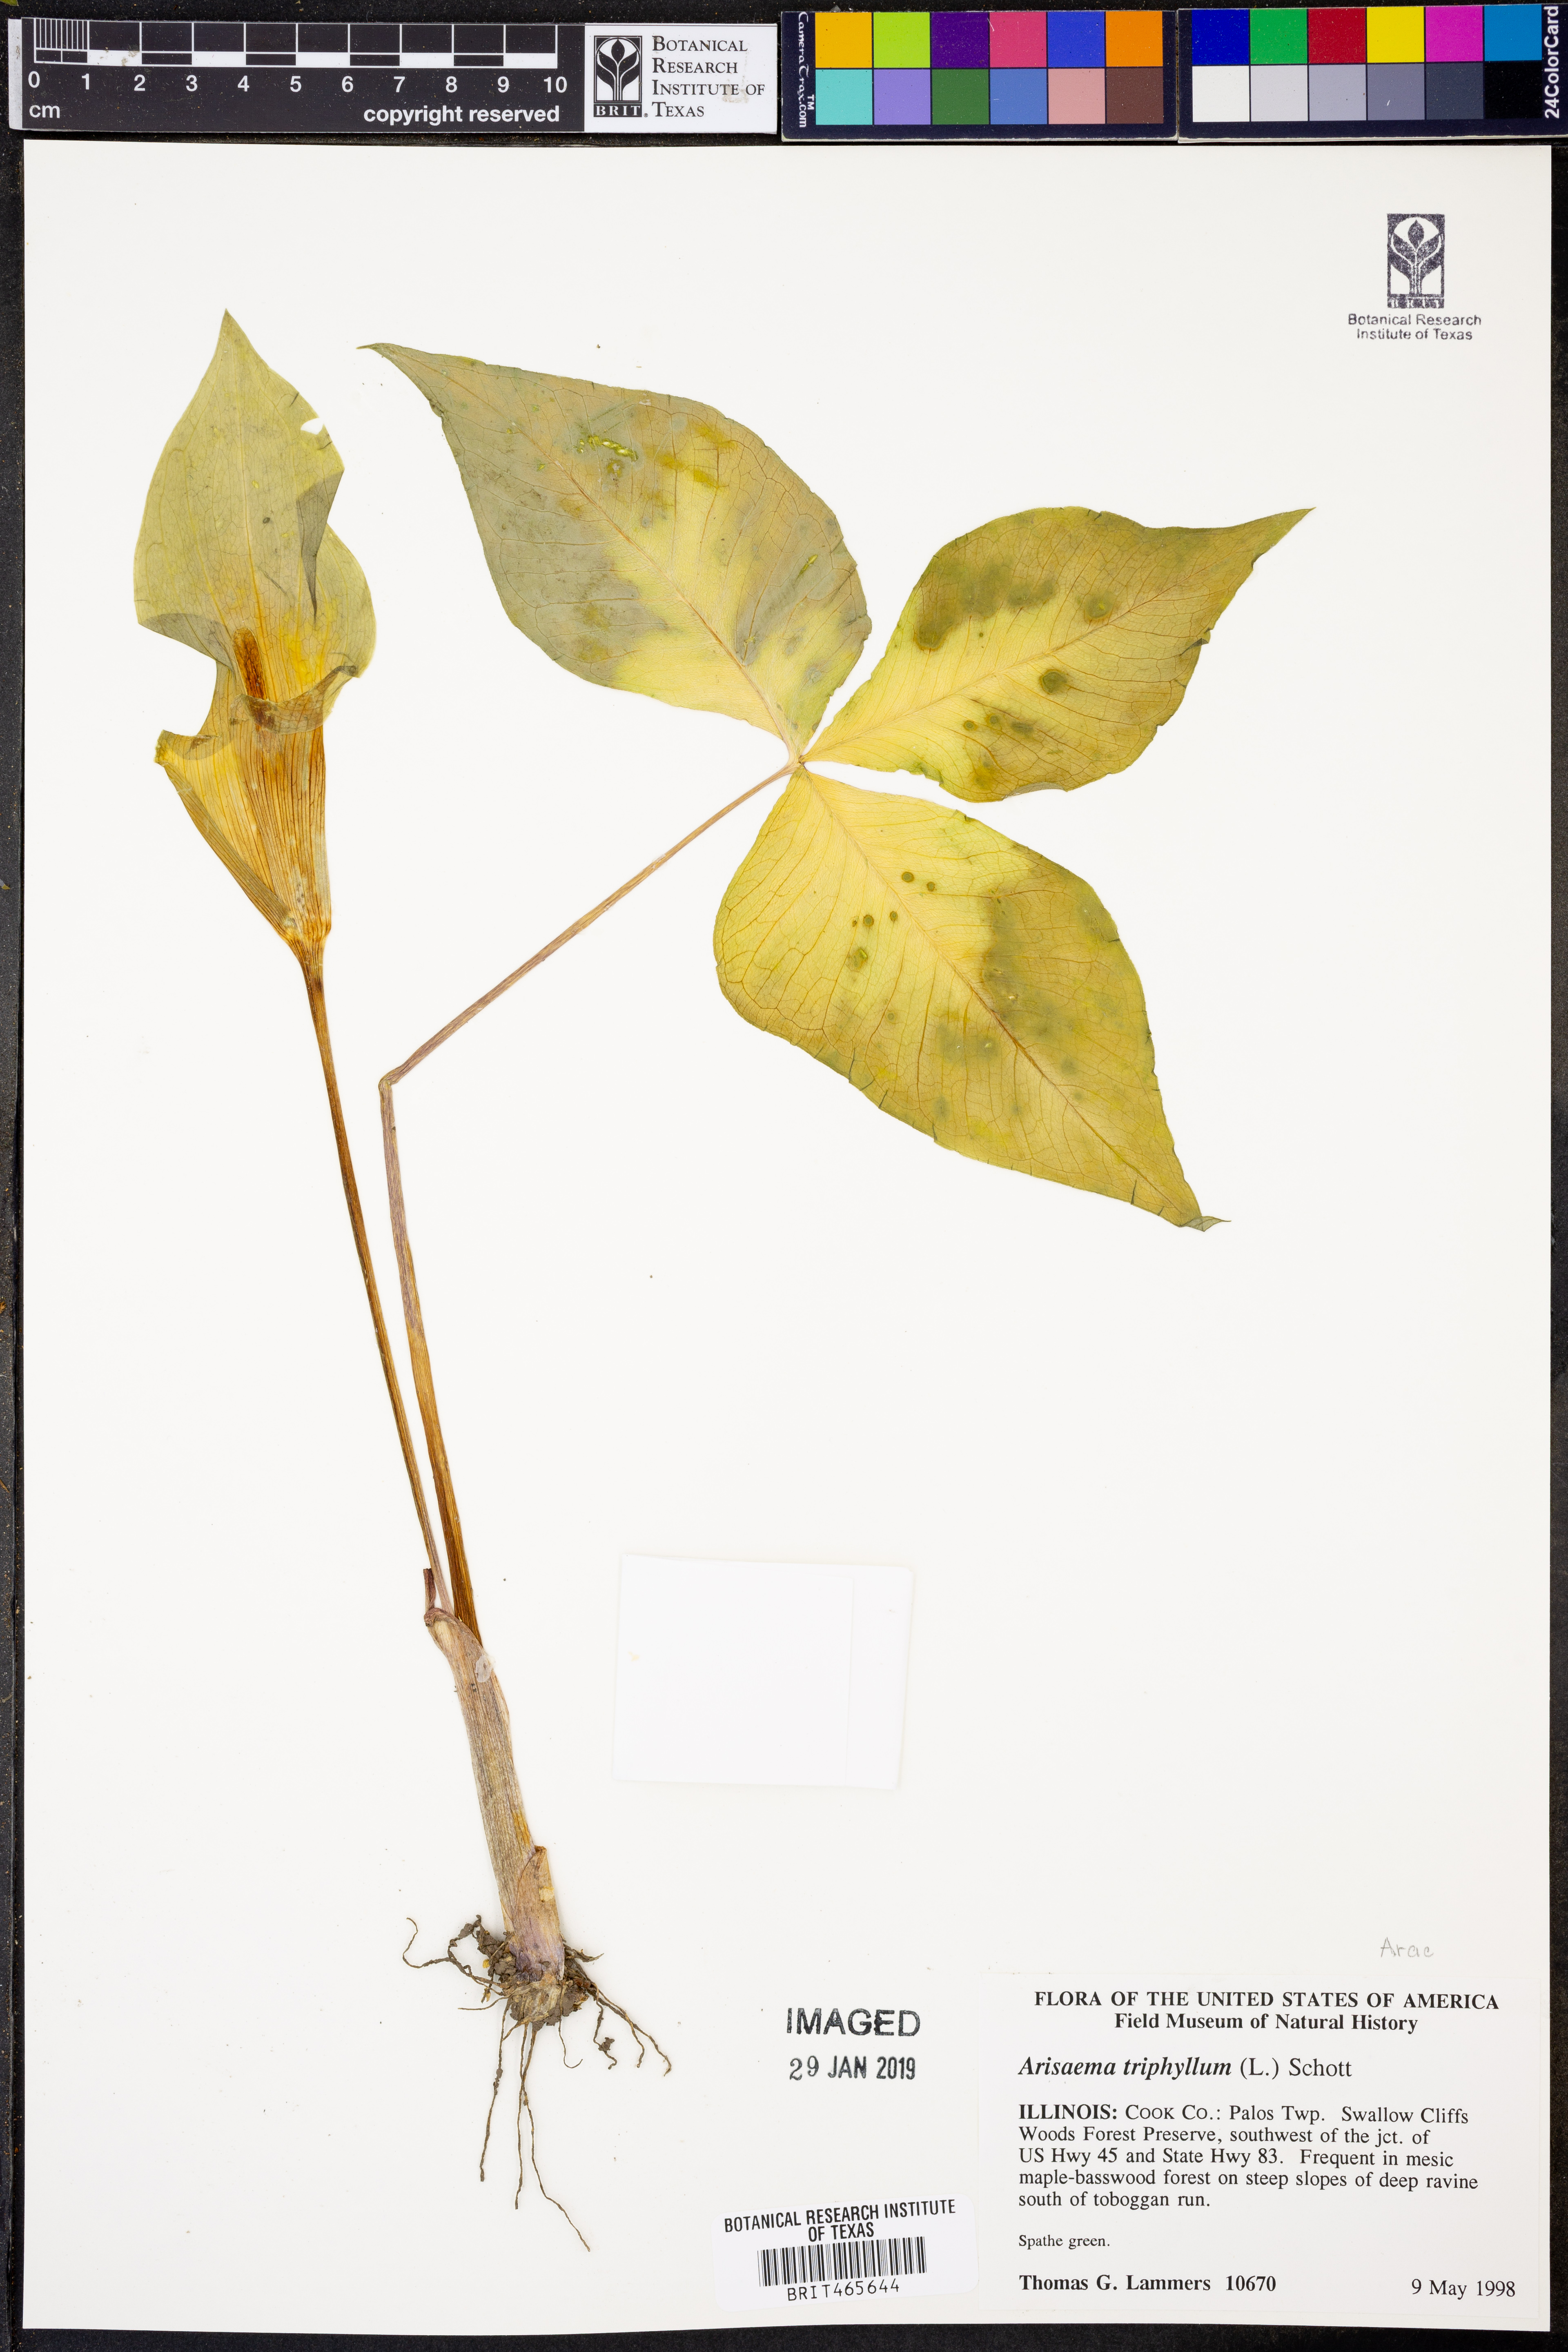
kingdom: Plantae
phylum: Tracheophyta
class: Liliopsida
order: Alismatales
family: Araceae
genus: Arisaema
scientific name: Arisaema triphyllum
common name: Jack-in-the-pulpit
